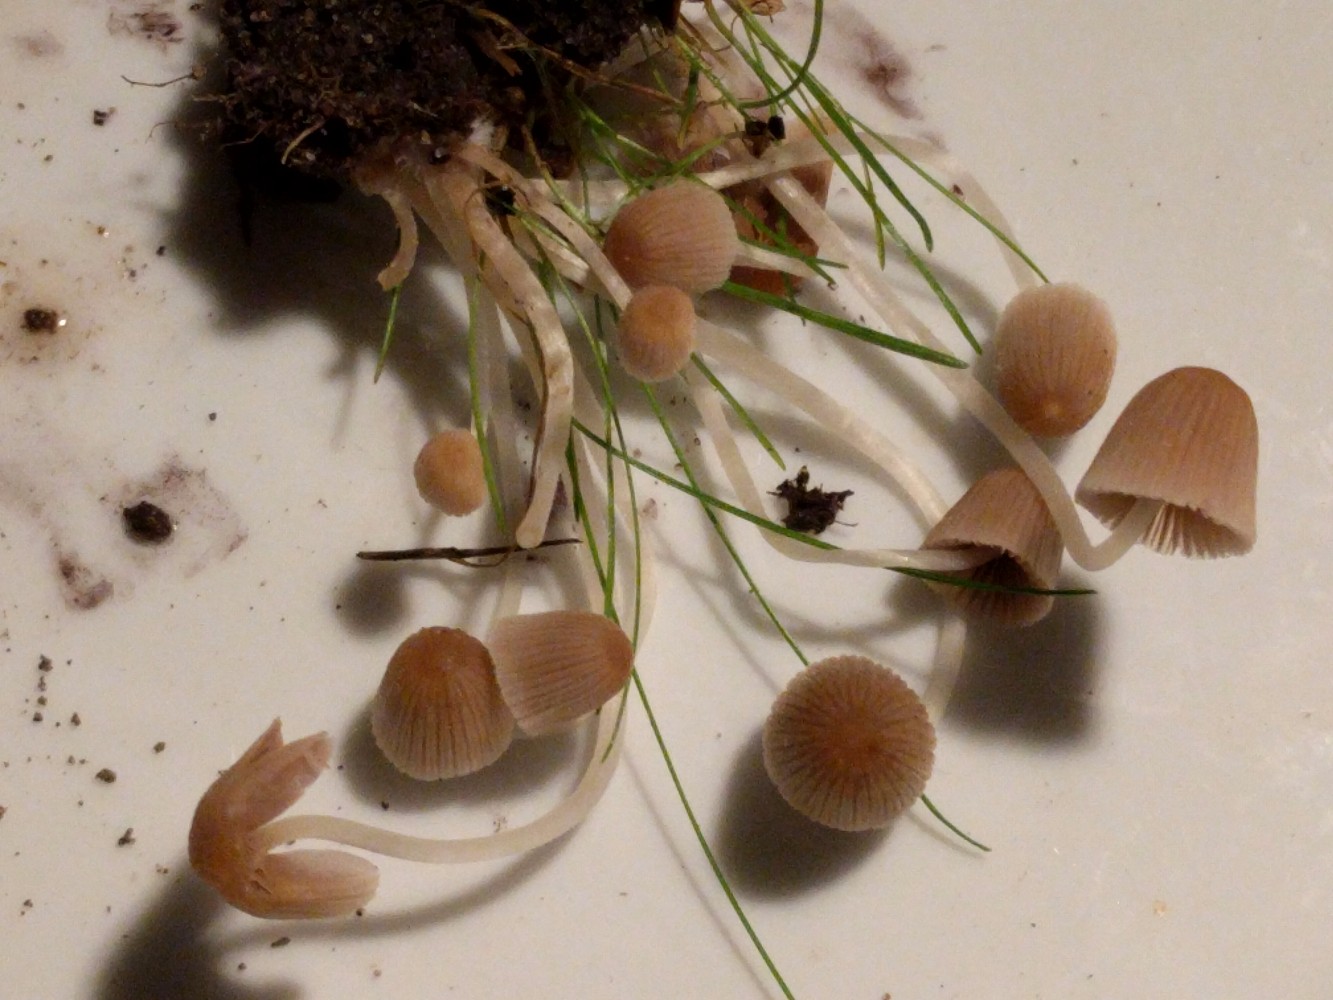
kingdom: Fungi
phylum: Basidiomycota
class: Agaricomycetes
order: Agaricales
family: Psathyrellaceae
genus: Coprinellus
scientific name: Coprinellus disseminatus
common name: bredsået blækhat
